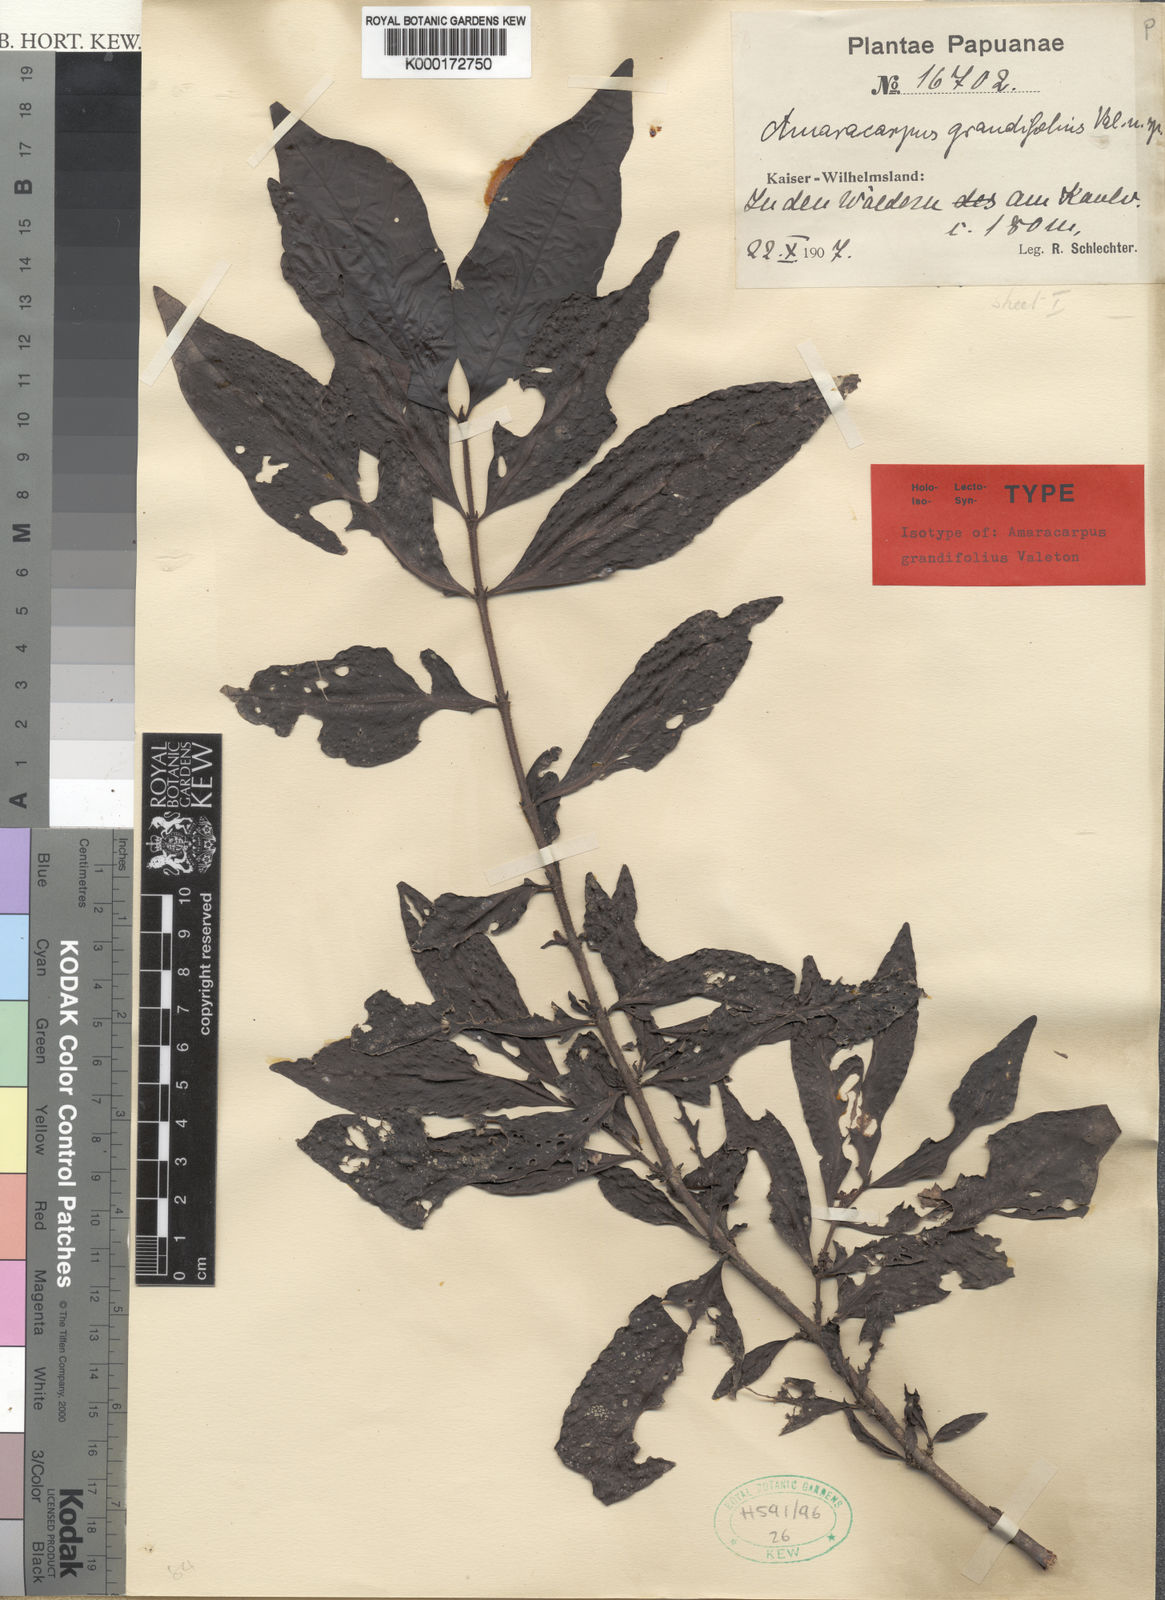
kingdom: Plantae
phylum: Tracheophyta
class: Magnoliopsida
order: Gentianales
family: Rubiaceae
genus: Amaracarpus
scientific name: Amaracarpus grandifolius
